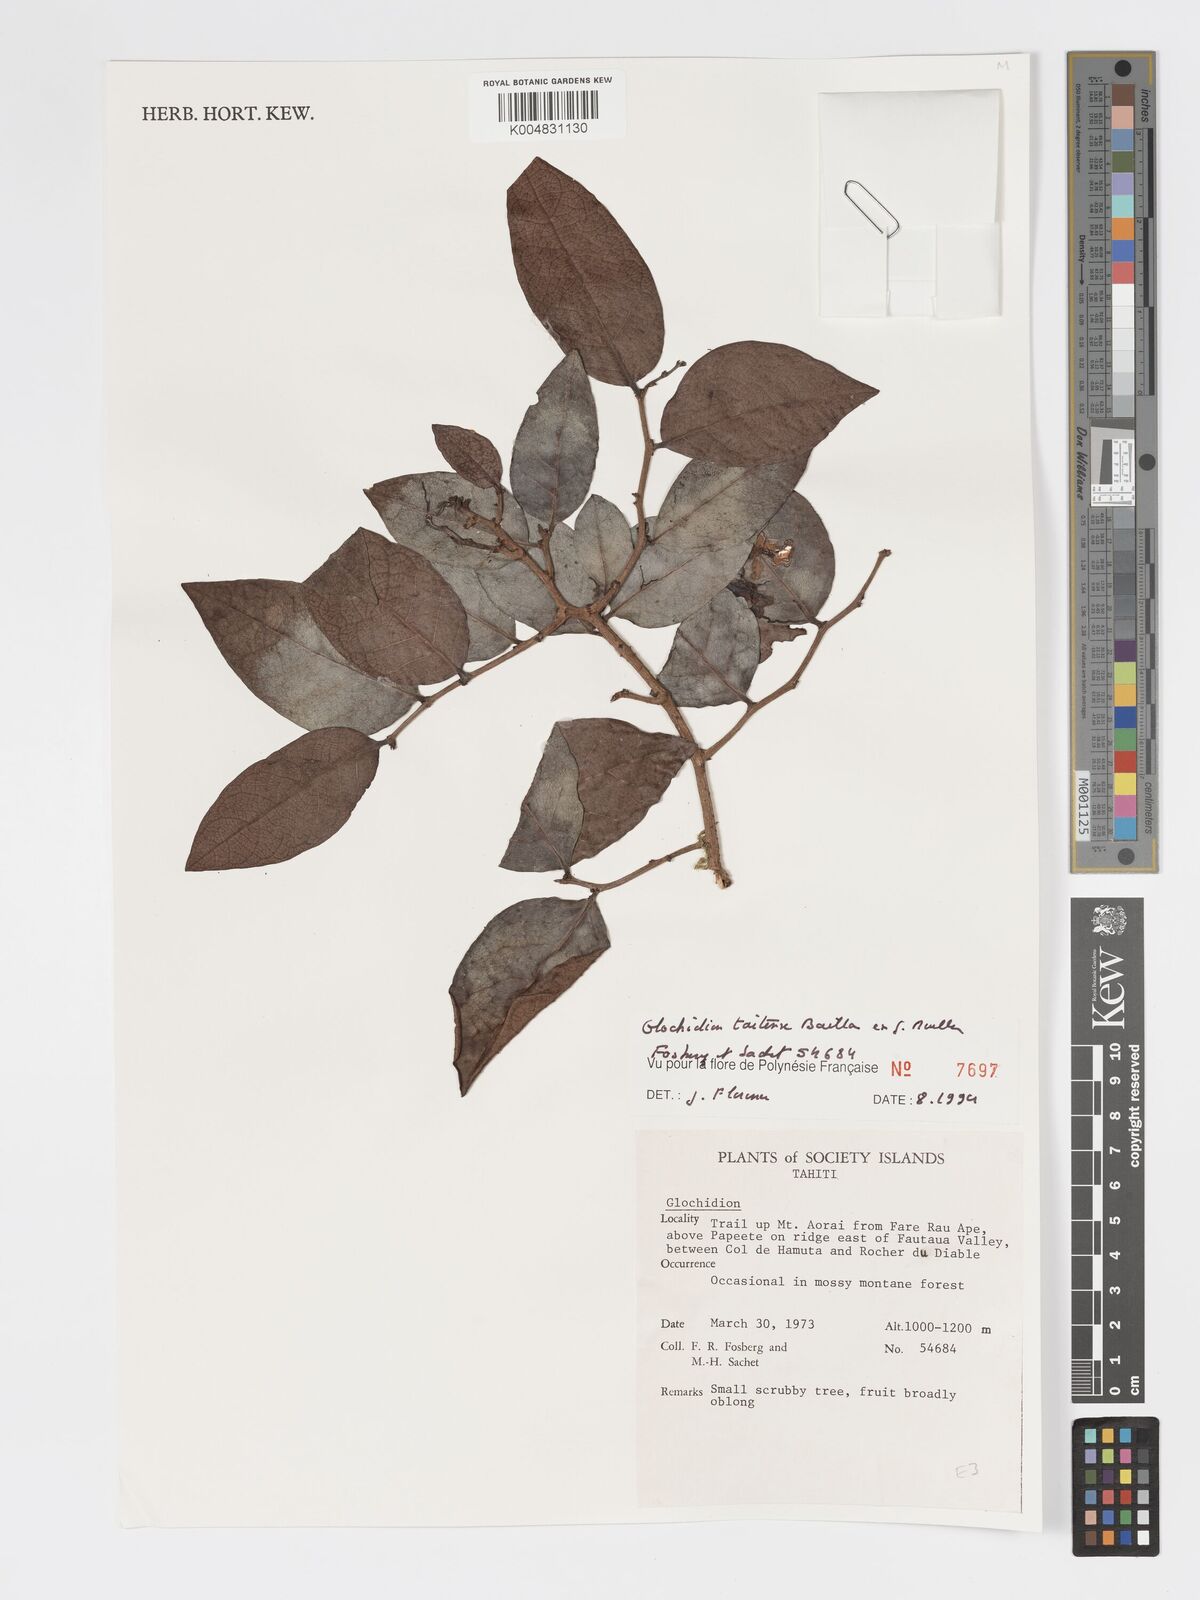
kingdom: Plantae
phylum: Tracheophyta
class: Magnoliopsida
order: Malpighiales
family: Phyllanthaceae
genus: Glochidion
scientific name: Glochidion taitense
